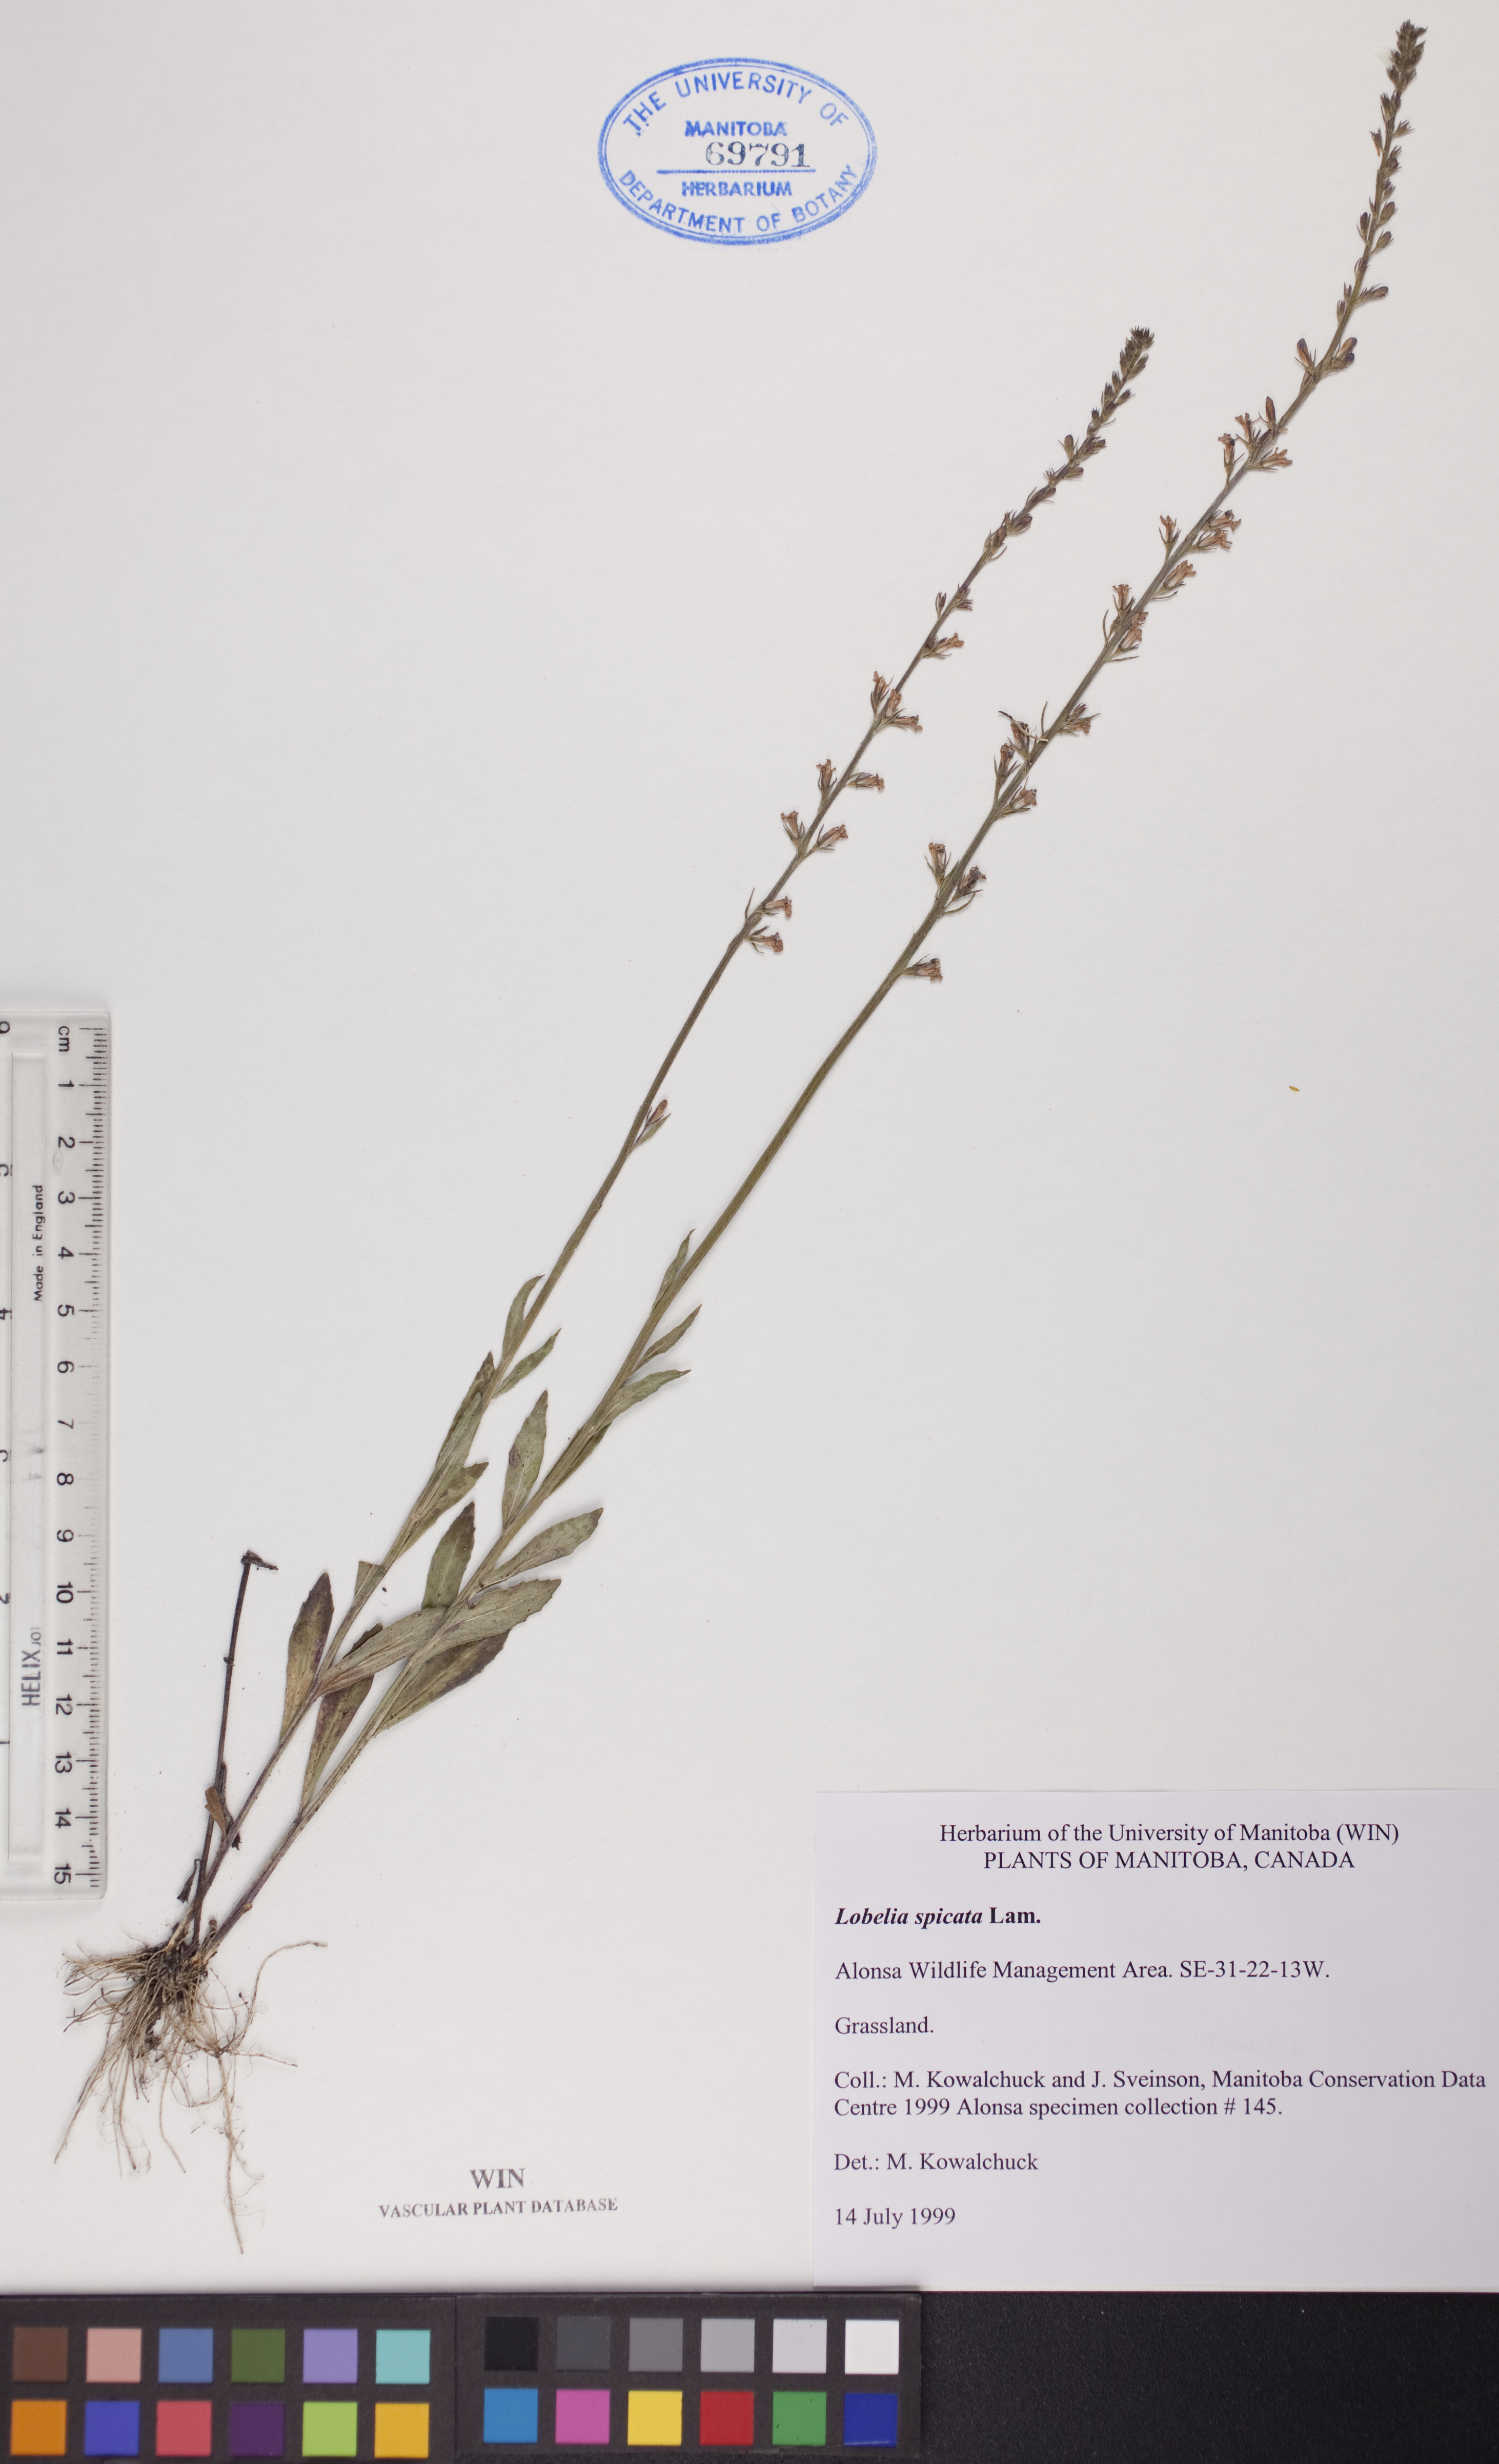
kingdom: Plantae
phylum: Tracheophyta
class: Magnoliopsida
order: Asterales
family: Campanulaceae
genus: Lobelia
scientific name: Lobelia spicata
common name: Pale-spike lobelia
